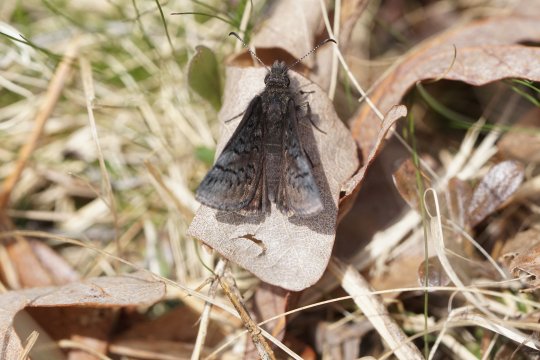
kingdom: Animalia
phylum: Arthropoda
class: Insecta
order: Lepidoptera
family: Hesperiidae
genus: Erynnis
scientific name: Erynnis brizo
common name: Sleepy Duskywing
